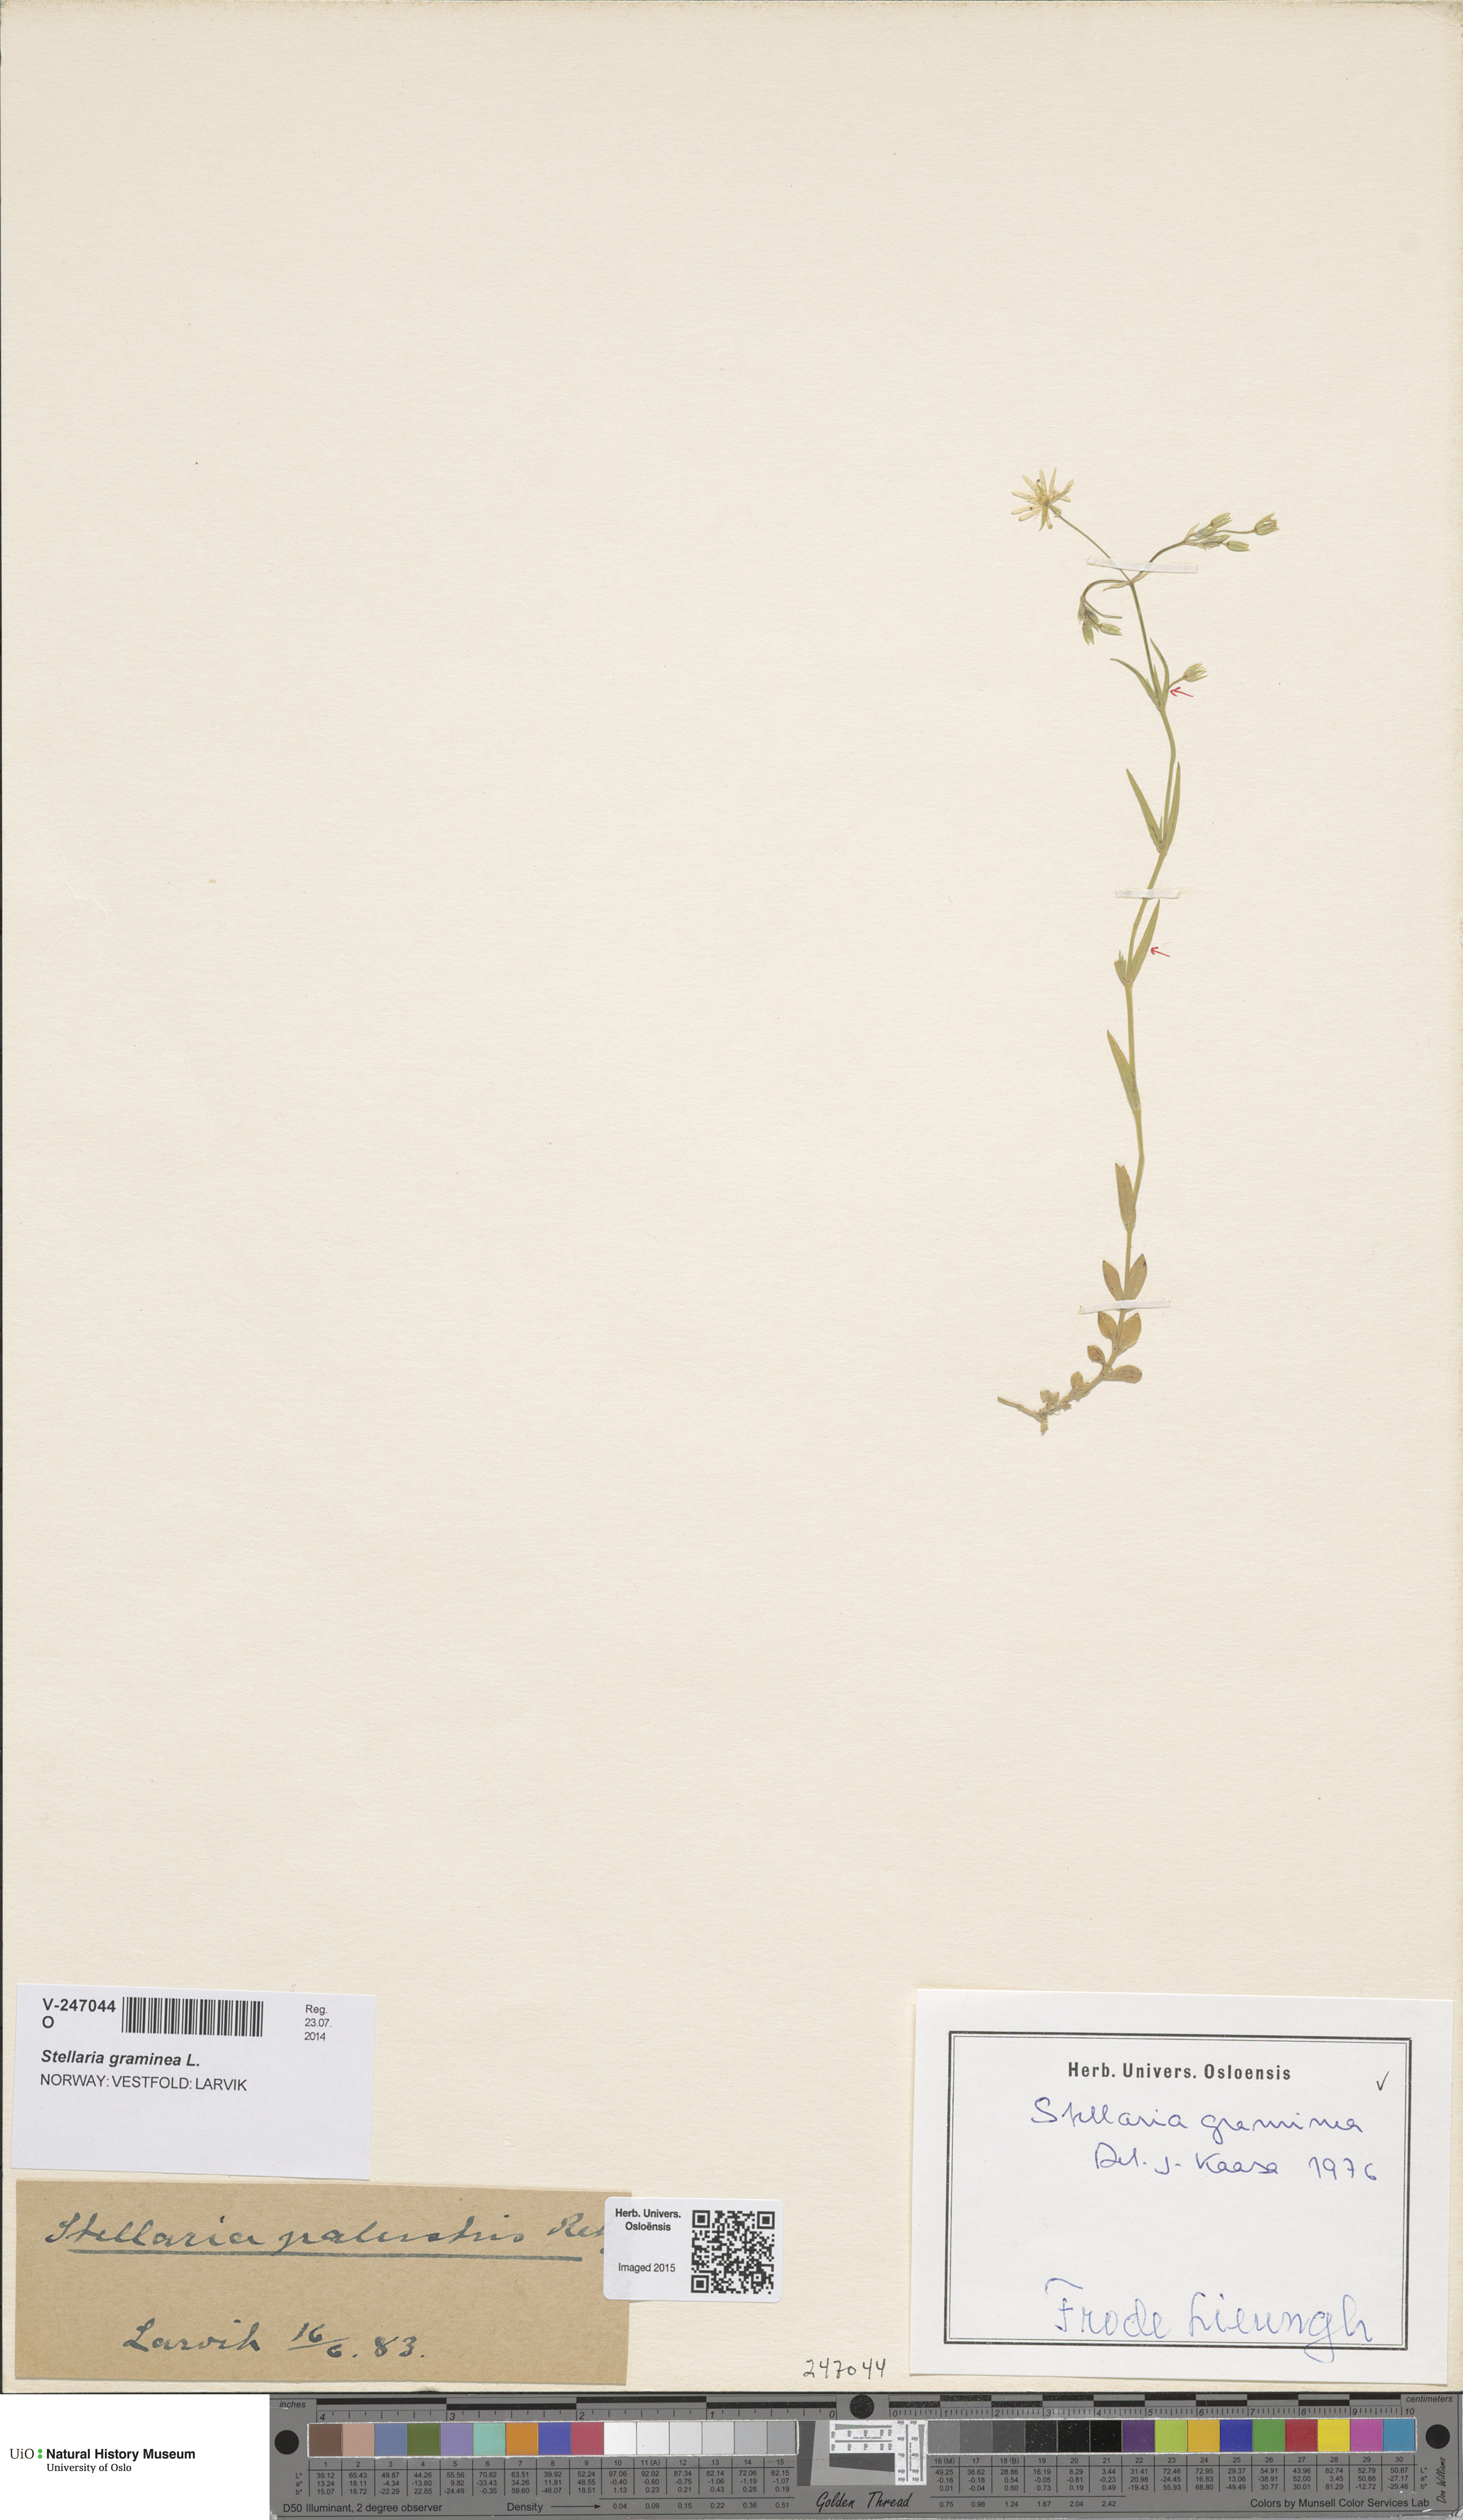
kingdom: Plantae
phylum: Tracheophyta
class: Magnoliopsida
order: Caryophyllales
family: Caryophyllaceae
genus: Stellaria
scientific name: Stellaria graminea
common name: Grass-like starwort
